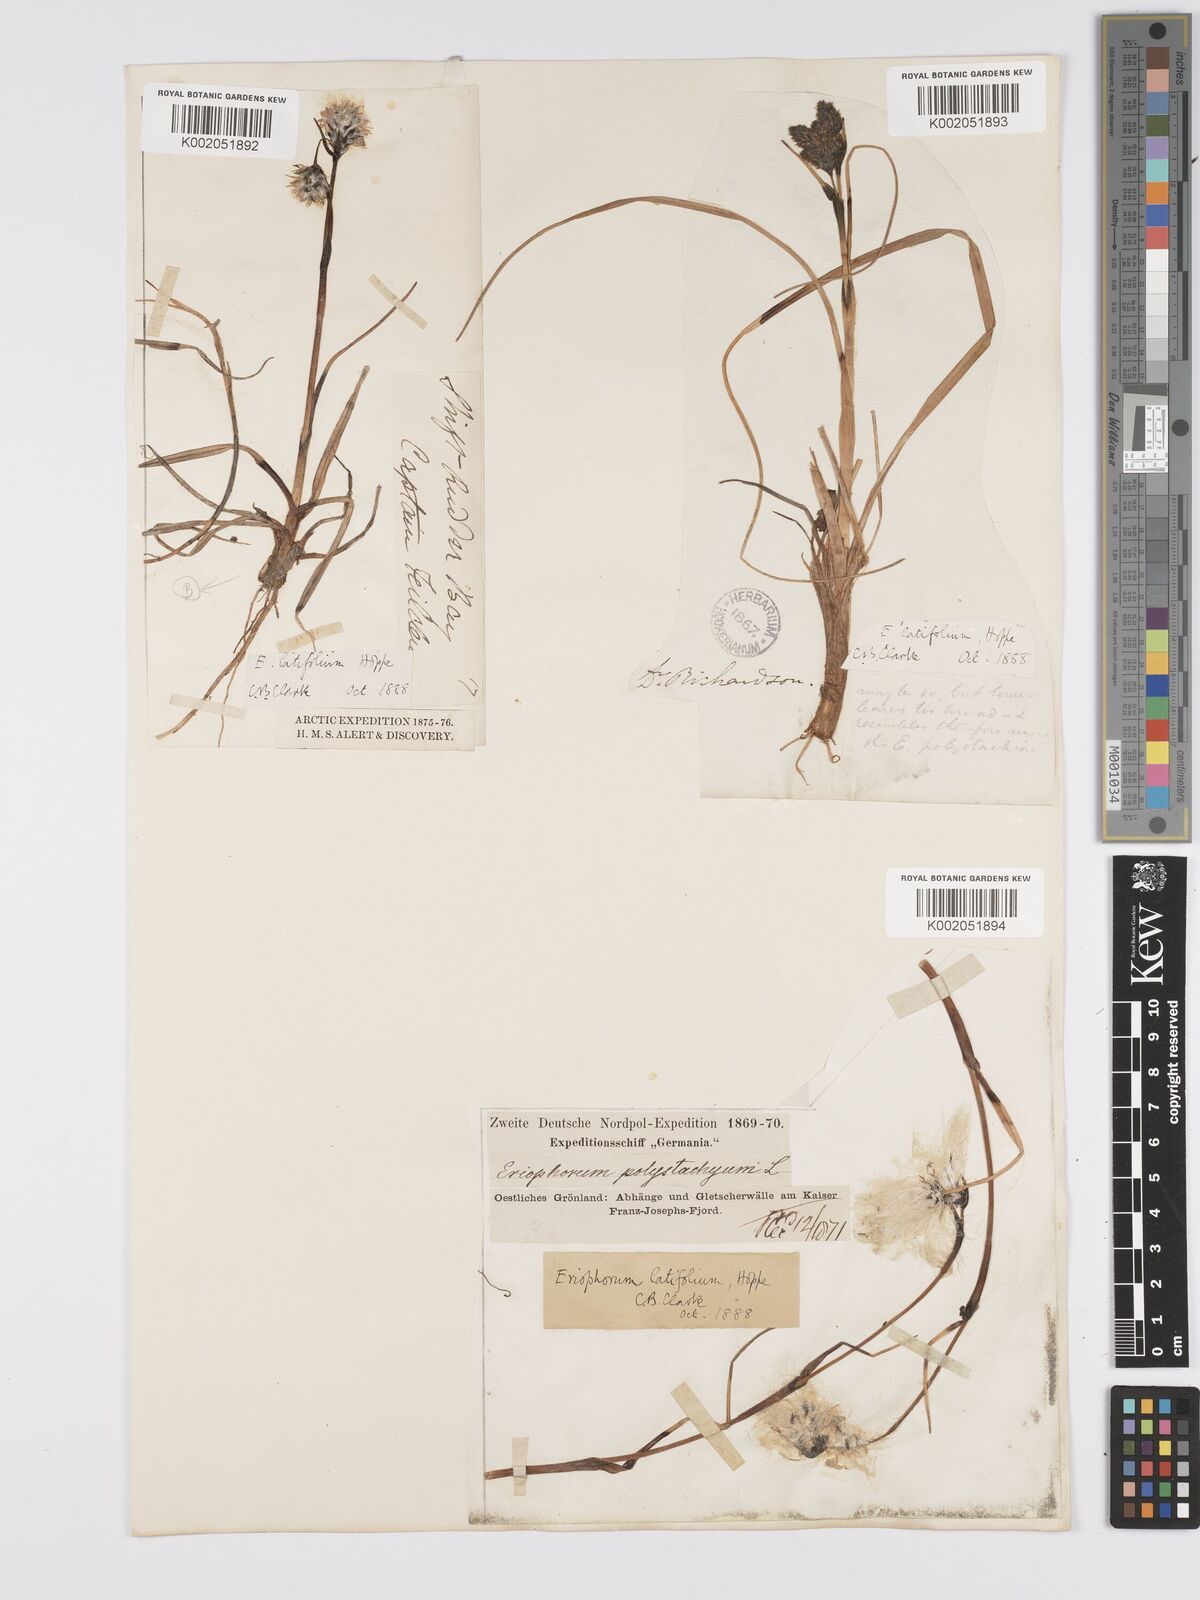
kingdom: Plantae
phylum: Tracheophyta
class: Liliopsida
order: Poales
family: Cyperaceae
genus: Eriophorum
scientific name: Eriophorum latifolium
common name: Broad-leaved cottongrass
